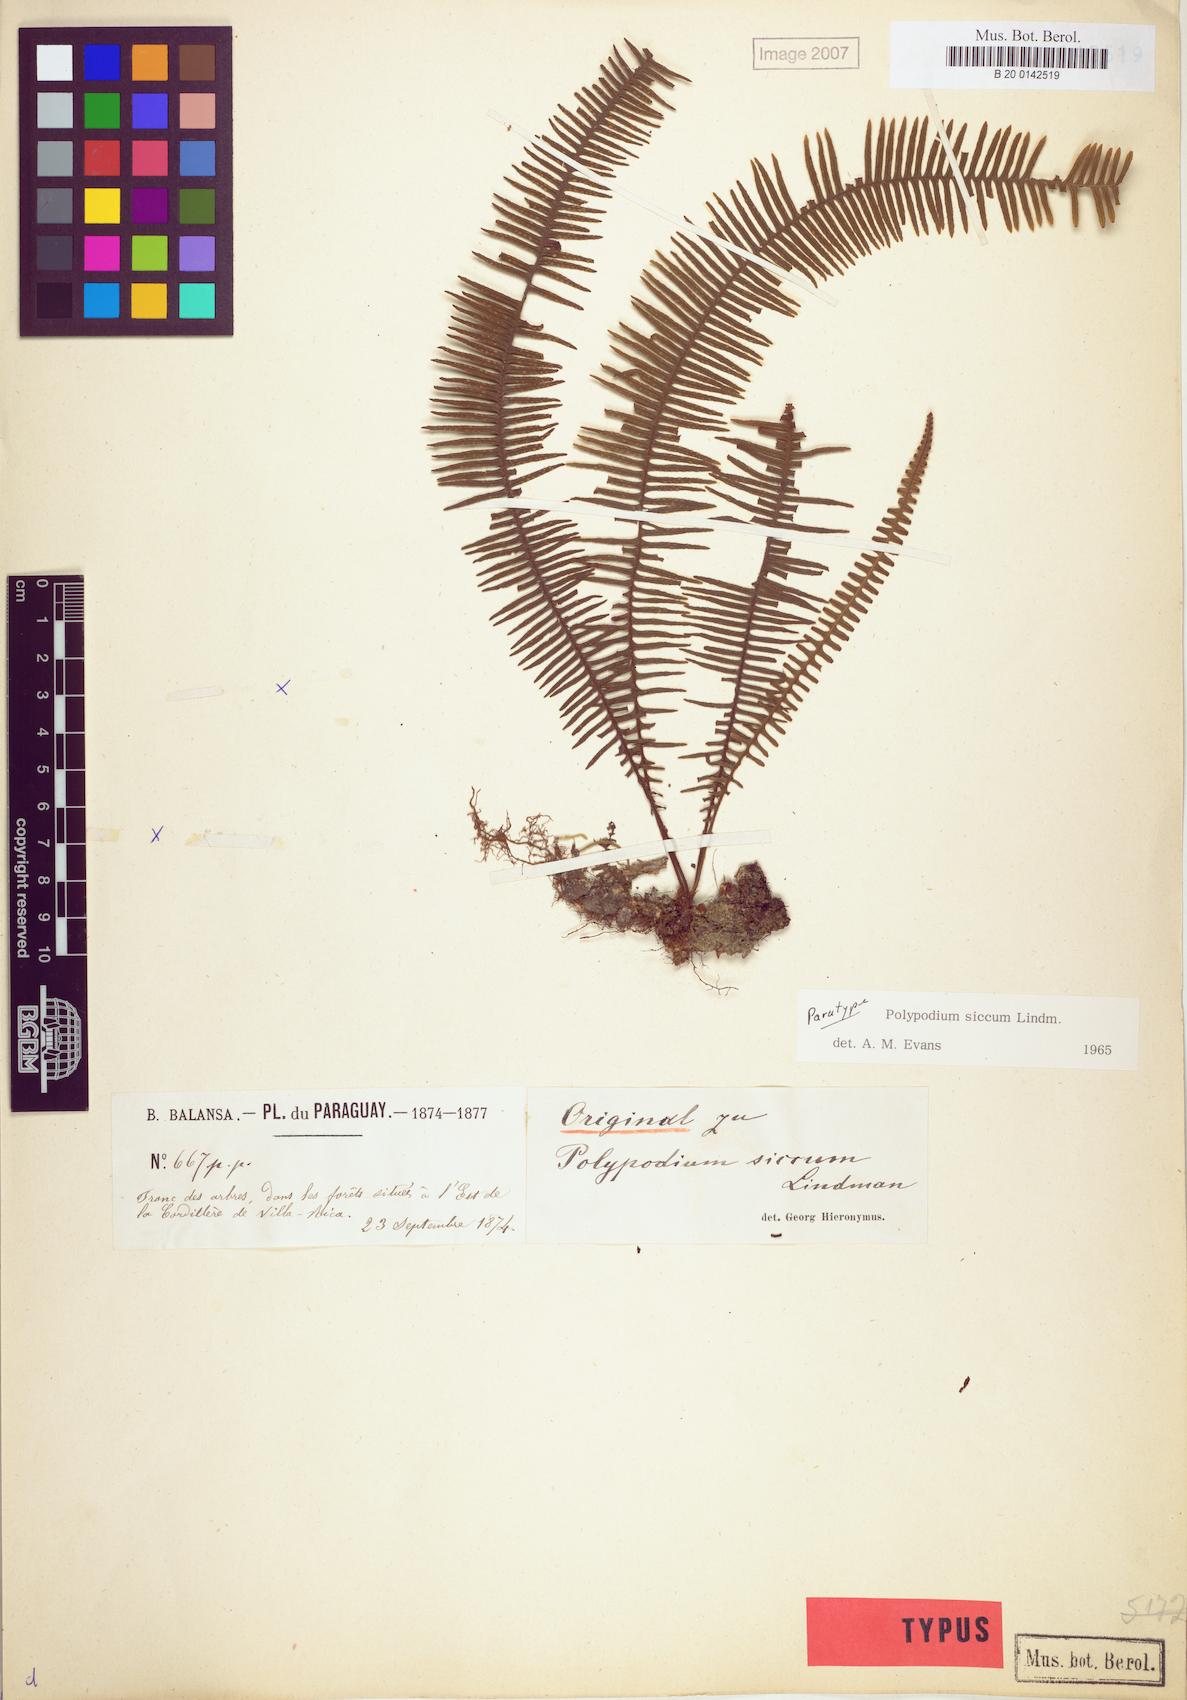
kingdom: Plantae
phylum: Tracheophyta
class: Polypodiopsida
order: Polypodiales
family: Polypodiaceae
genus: Pecluma
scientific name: Pecluma sicca
